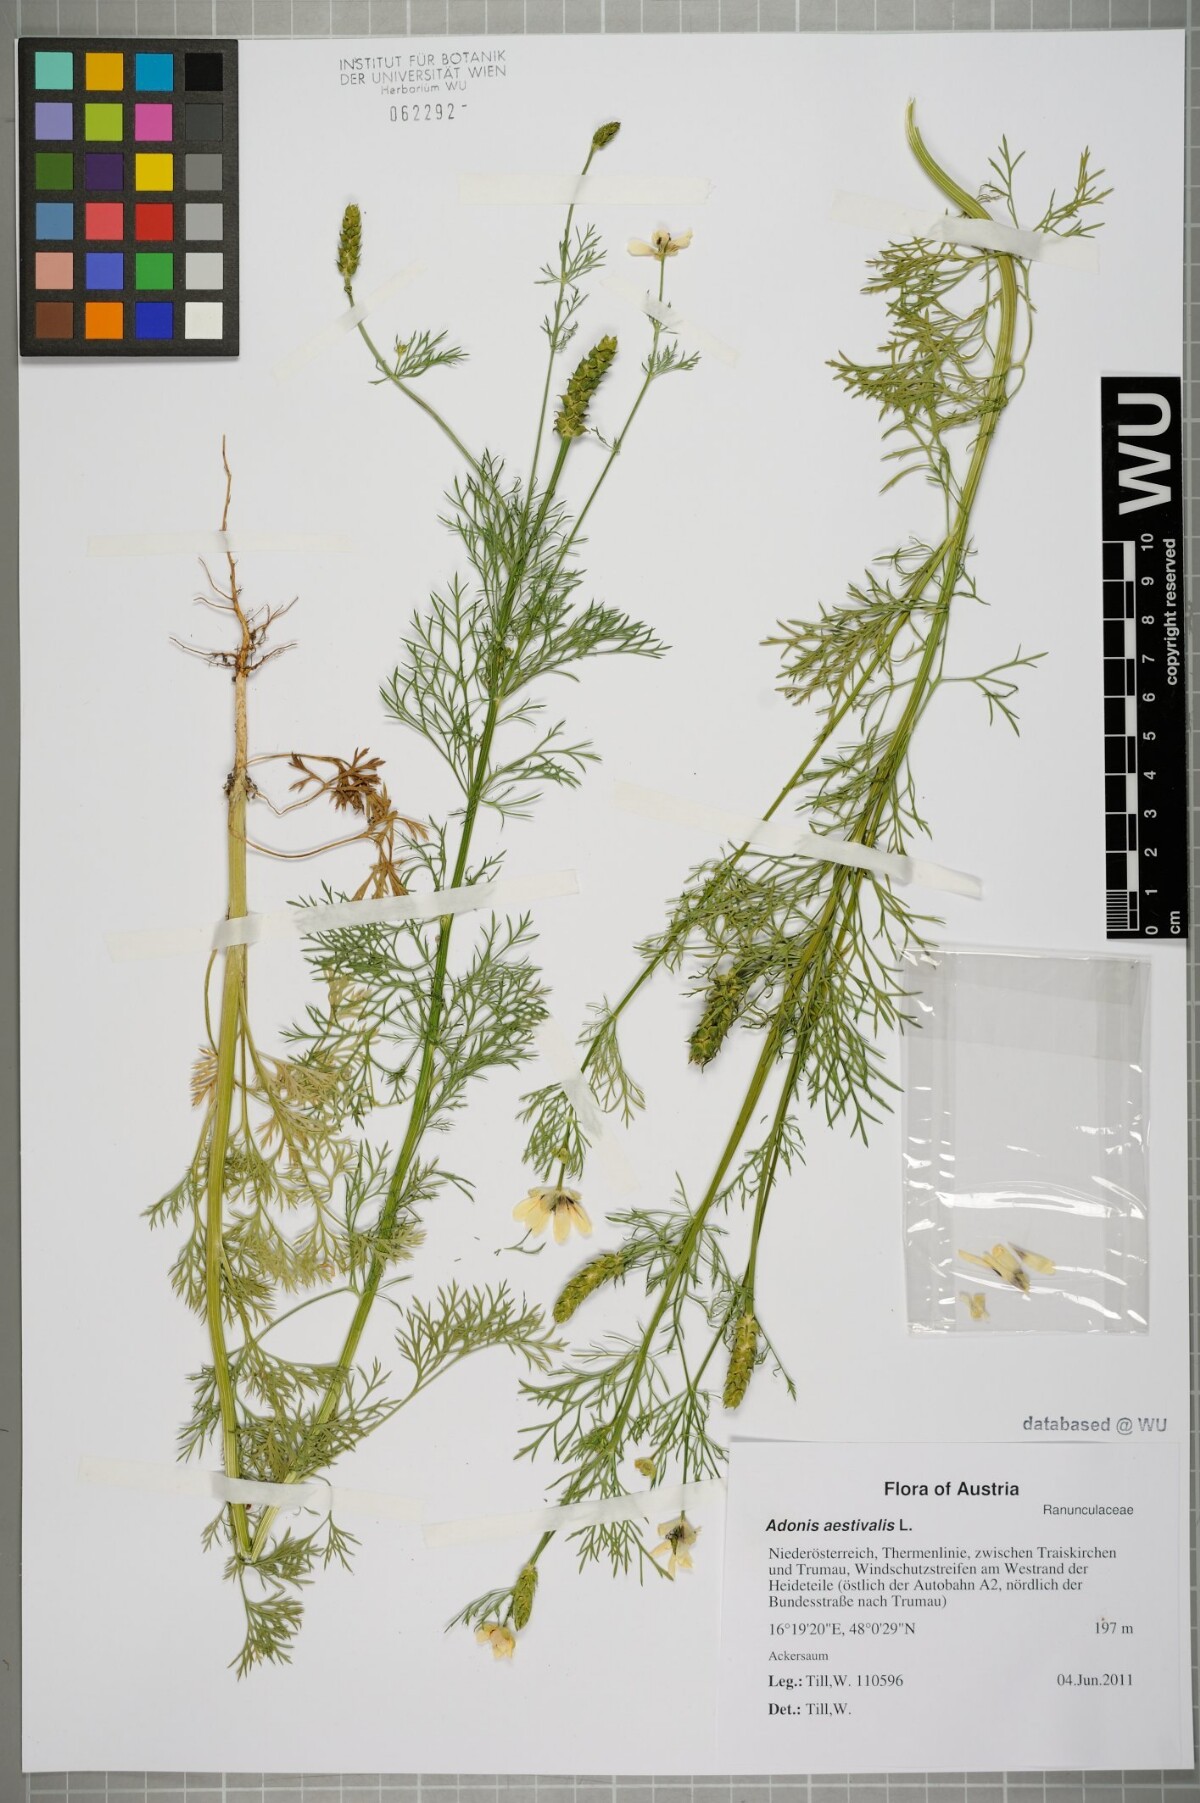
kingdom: Plantae
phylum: Tracheophyta
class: Magnoliopsida
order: Ranunculales
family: Ranunculaceae
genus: Adonis
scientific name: Adonis aestivalis
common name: Summer pheasant's-eye
